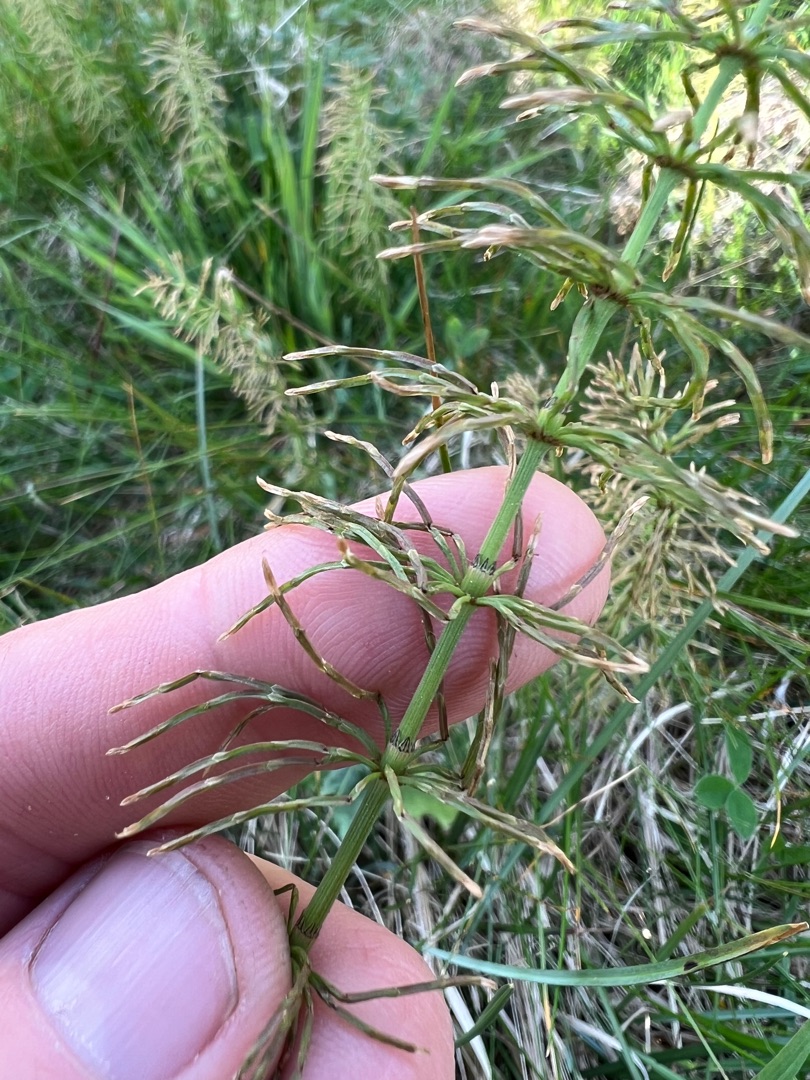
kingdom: Plantae
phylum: Tracheophyta
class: Polypodiopsida
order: Equisetales
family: Equisetaceae
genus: Equisetum
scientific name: Equisetum pratense
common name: Lund-padderok
